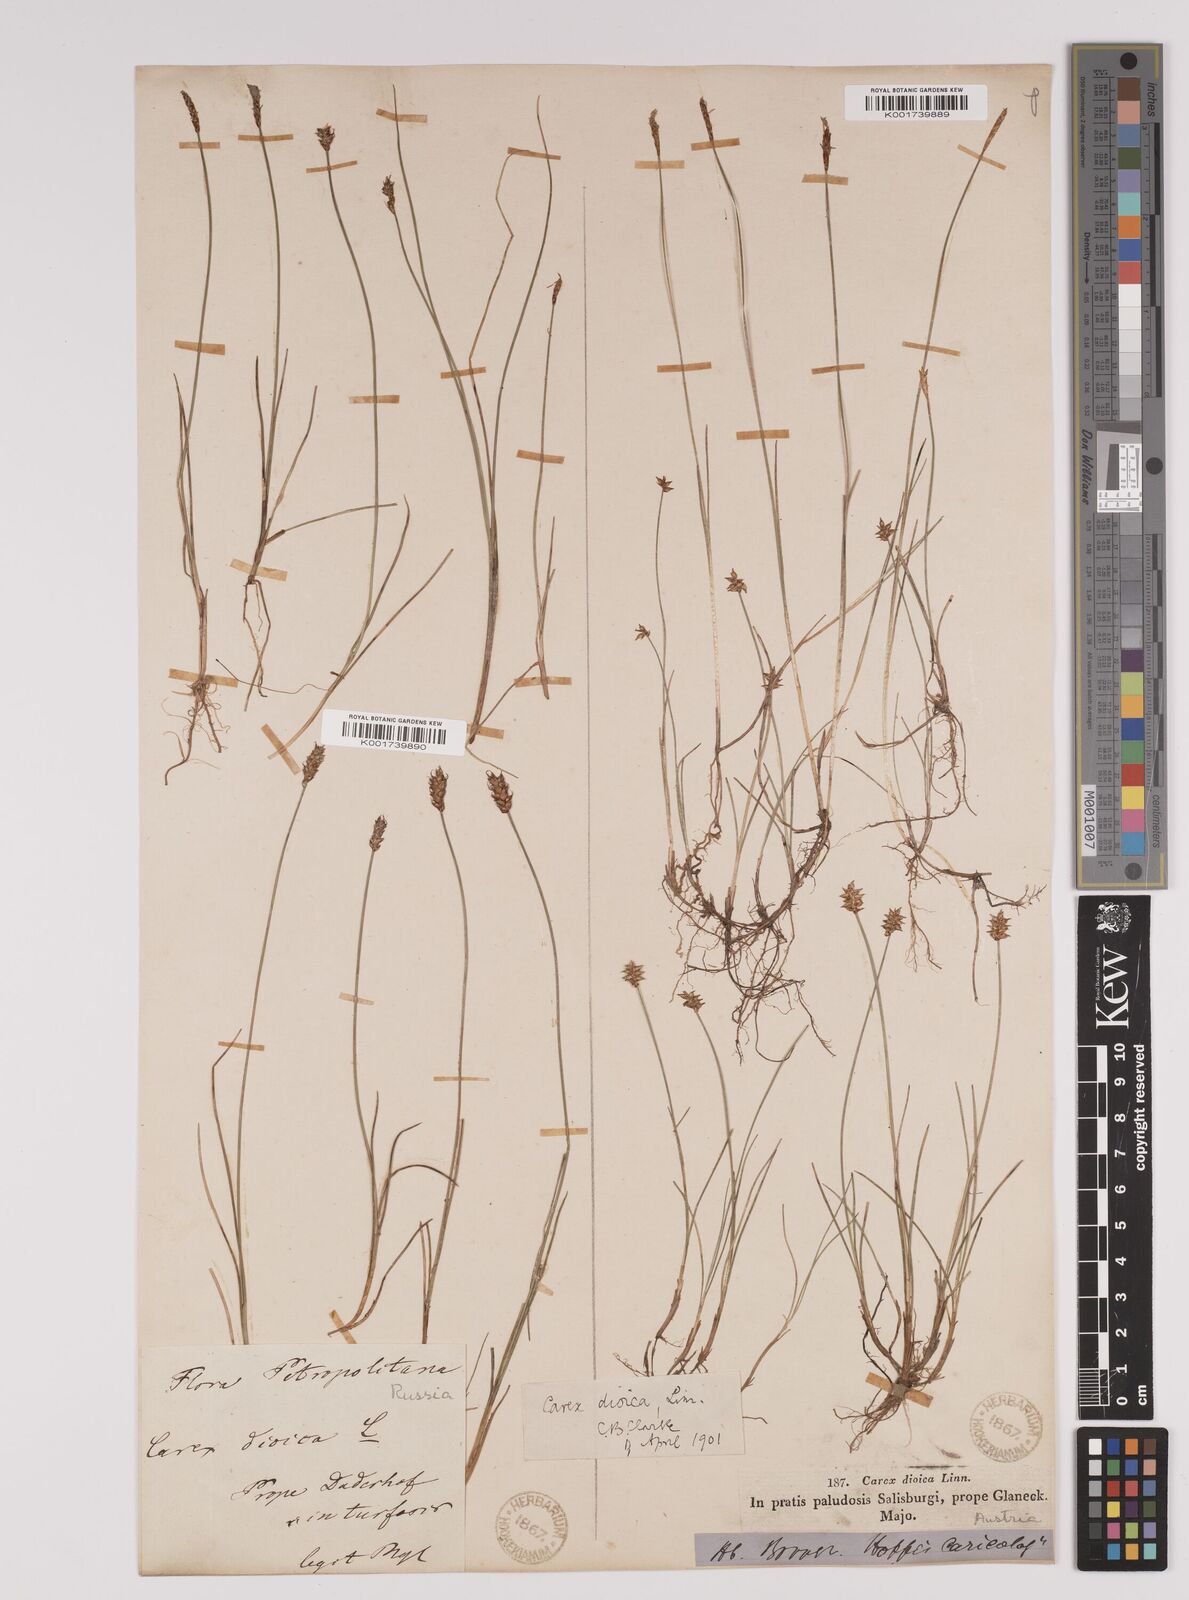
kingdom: Plantae
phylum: Tracheophyta
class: Liliopsida
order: Poales
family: Cyperaceae
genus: Carex
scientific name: Carex dioica
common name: Dioecious sedge
